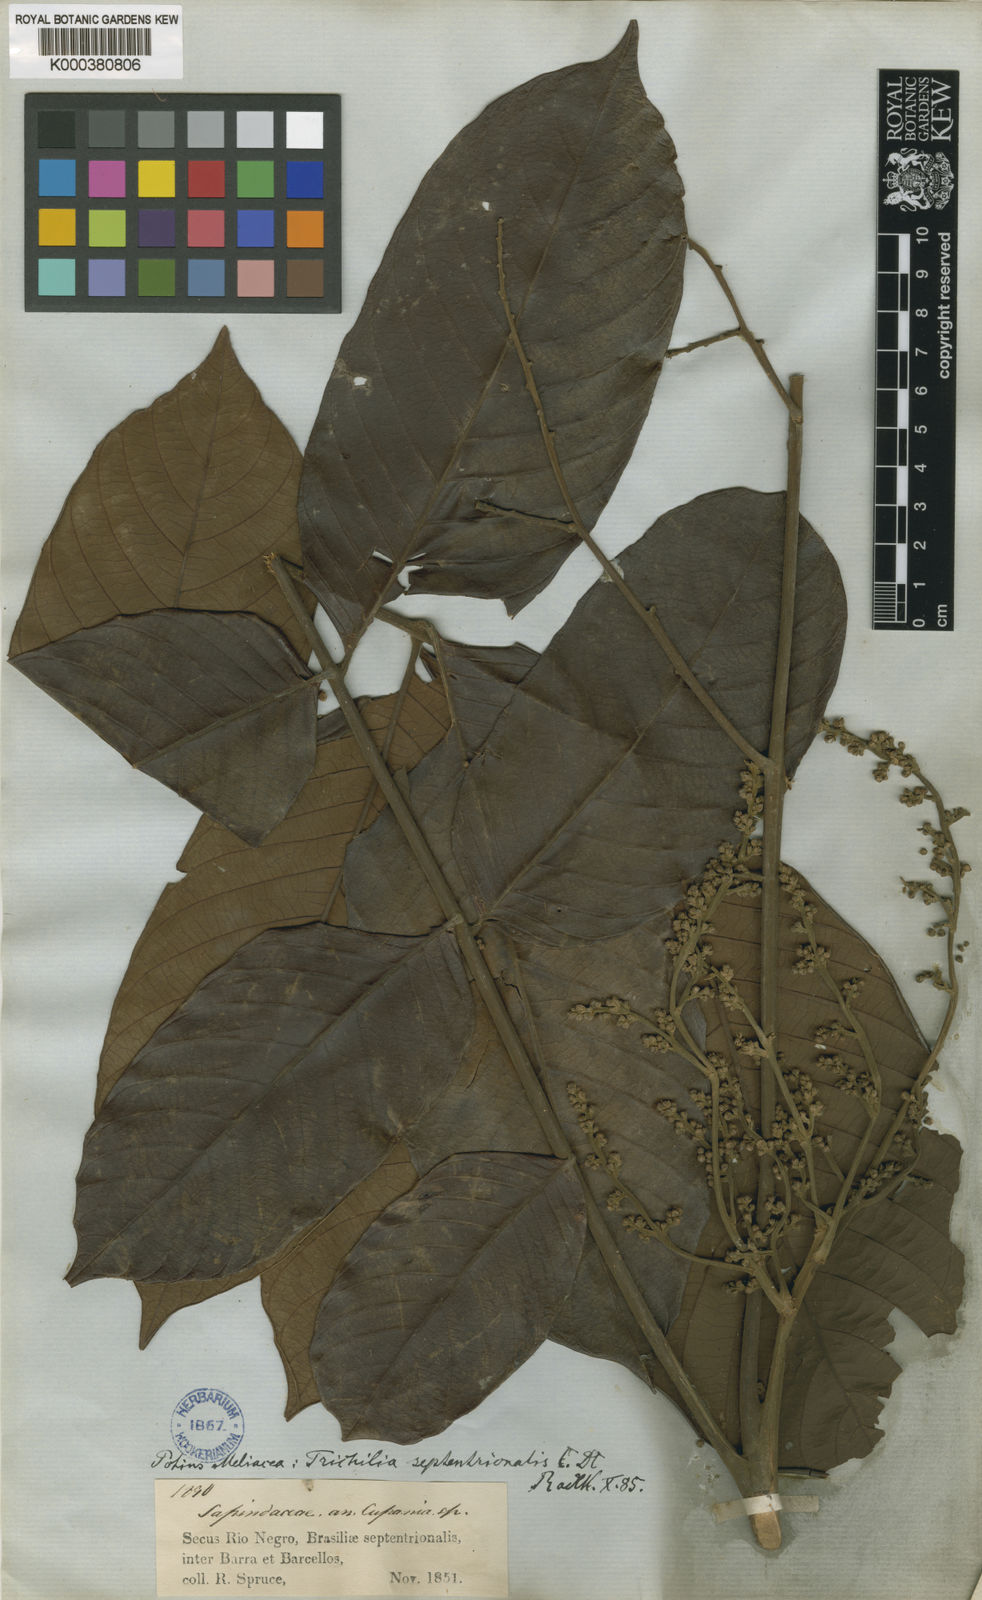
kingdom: Plantae
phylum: Tracheophyta
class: Magnoliopsida
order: Sapindales
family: Meliaceae
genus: Trichilia
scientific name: Trichilia septentrionalis
